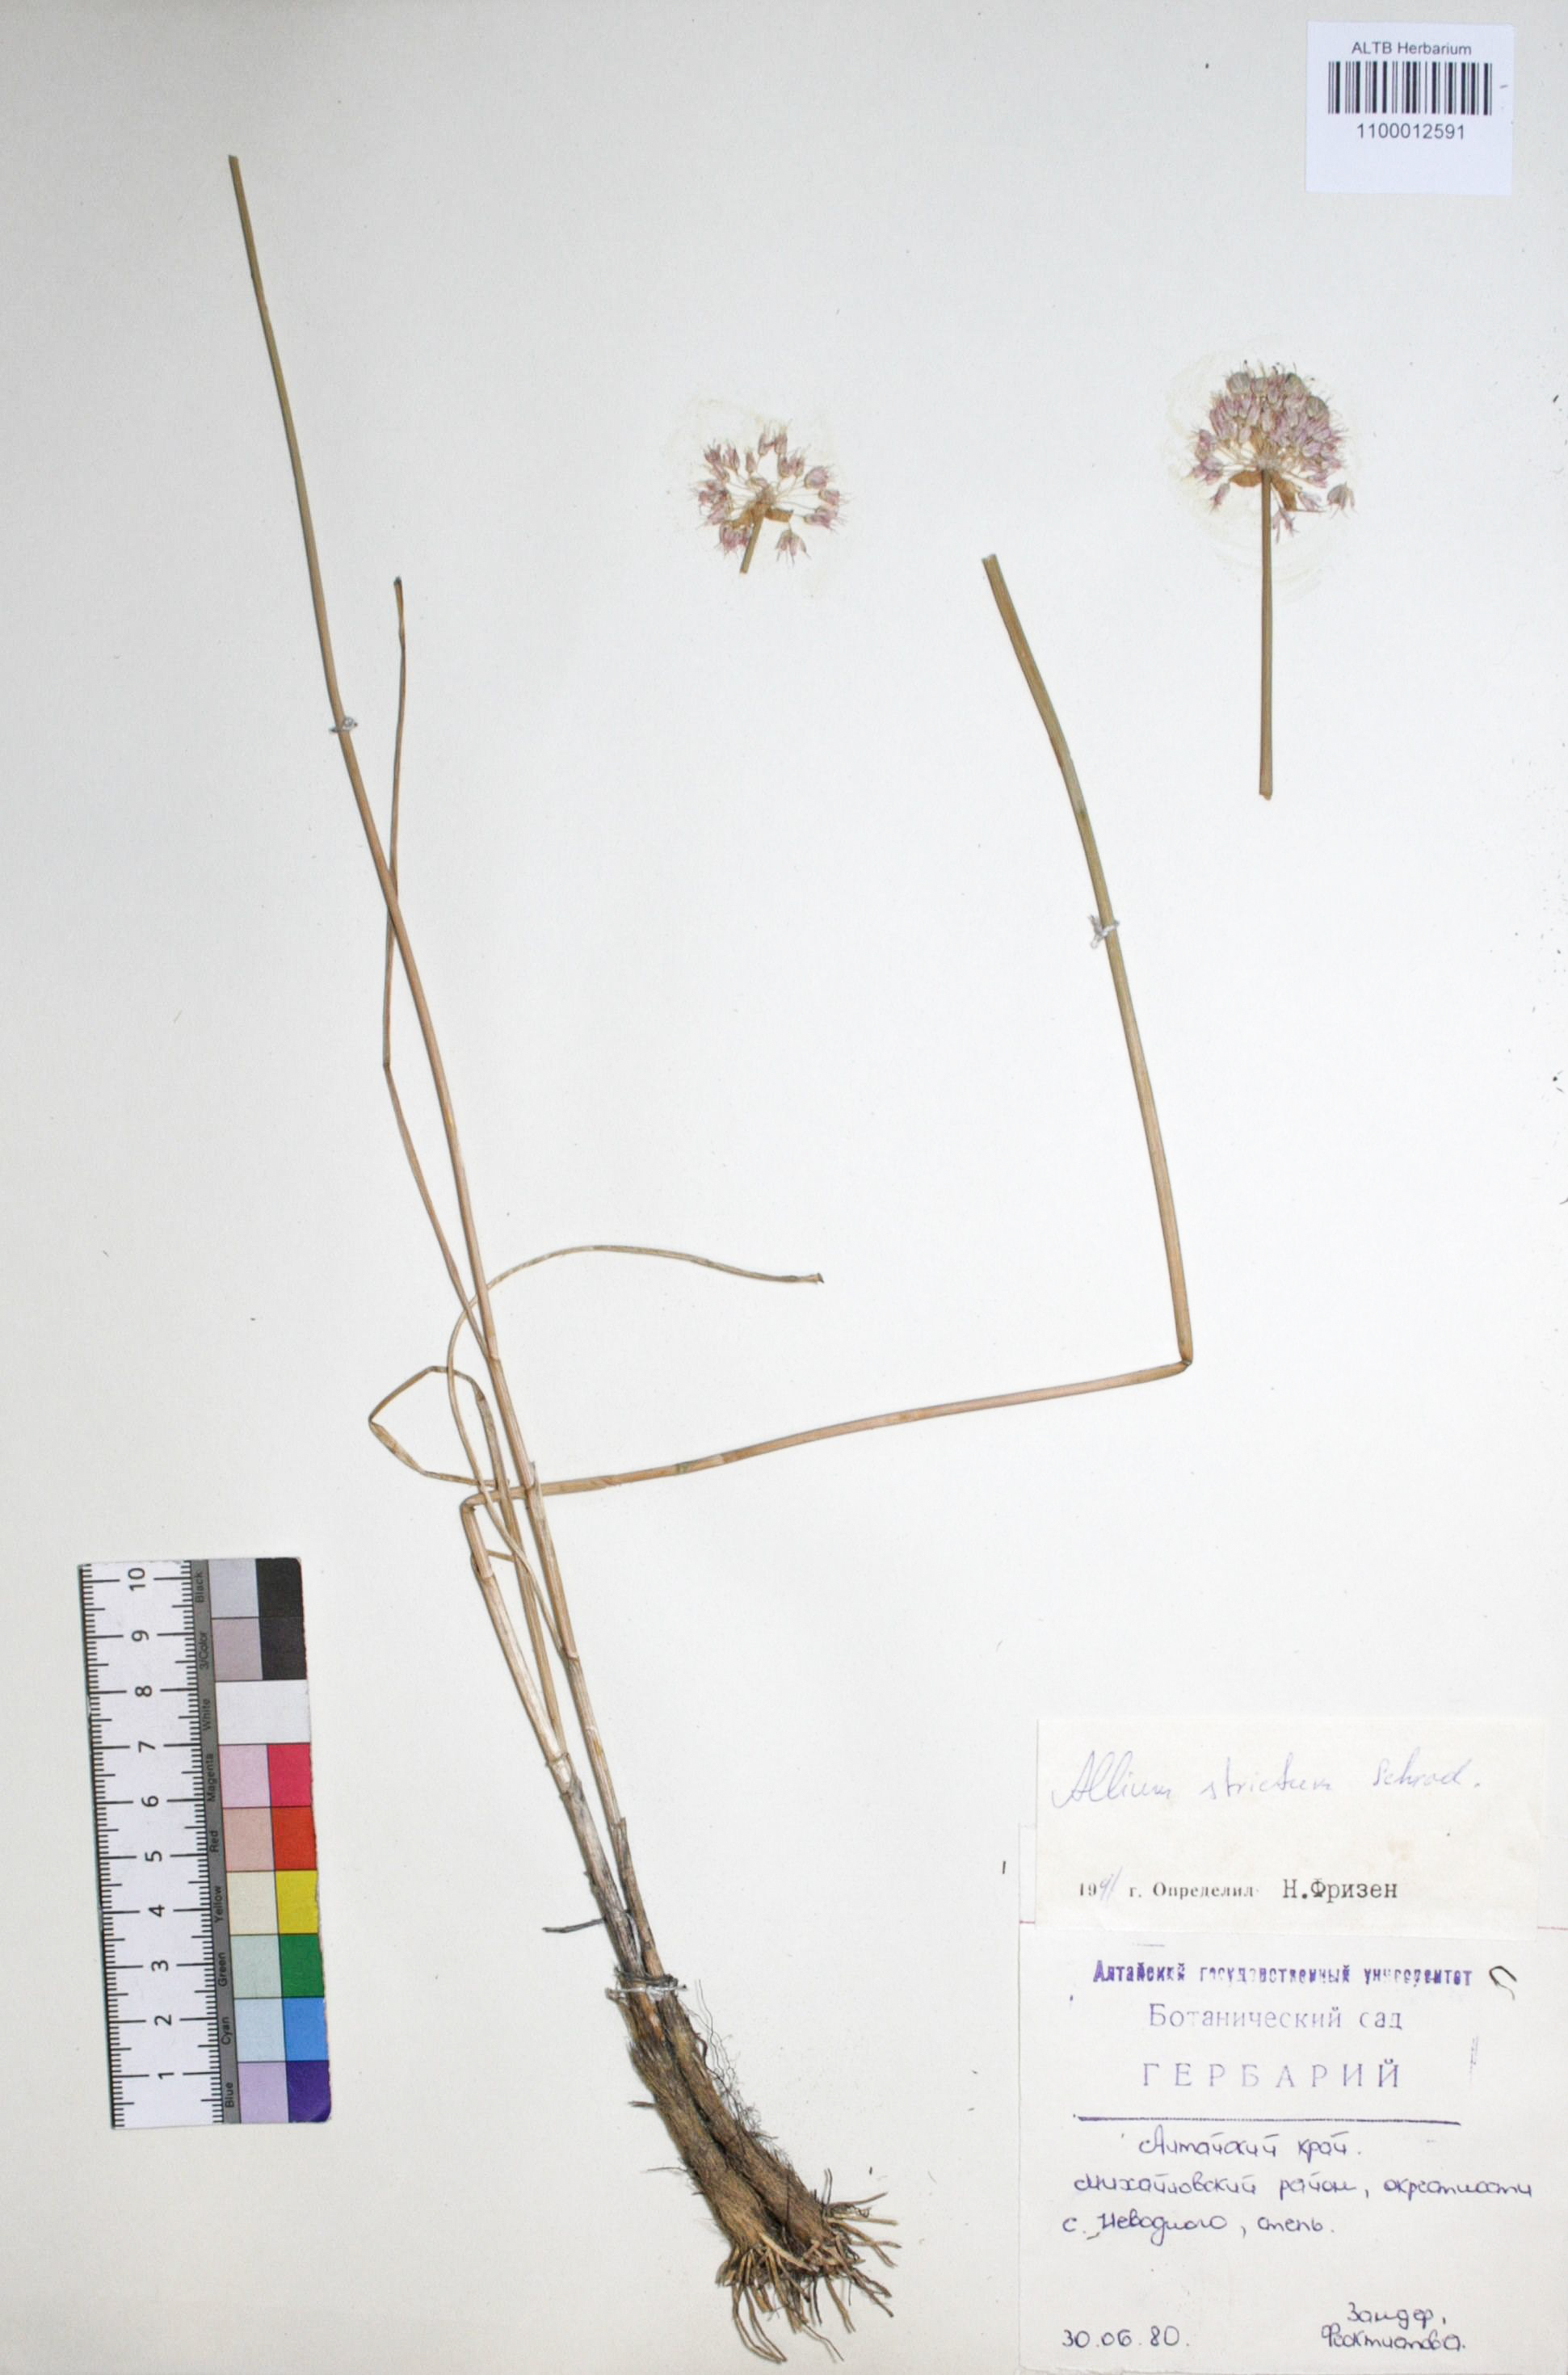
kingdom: Plantae
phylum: Tracheophyta
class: Liliopsida
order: Asparagales
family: Amaryllidaceae
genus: Allium
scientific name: Allium strictum
